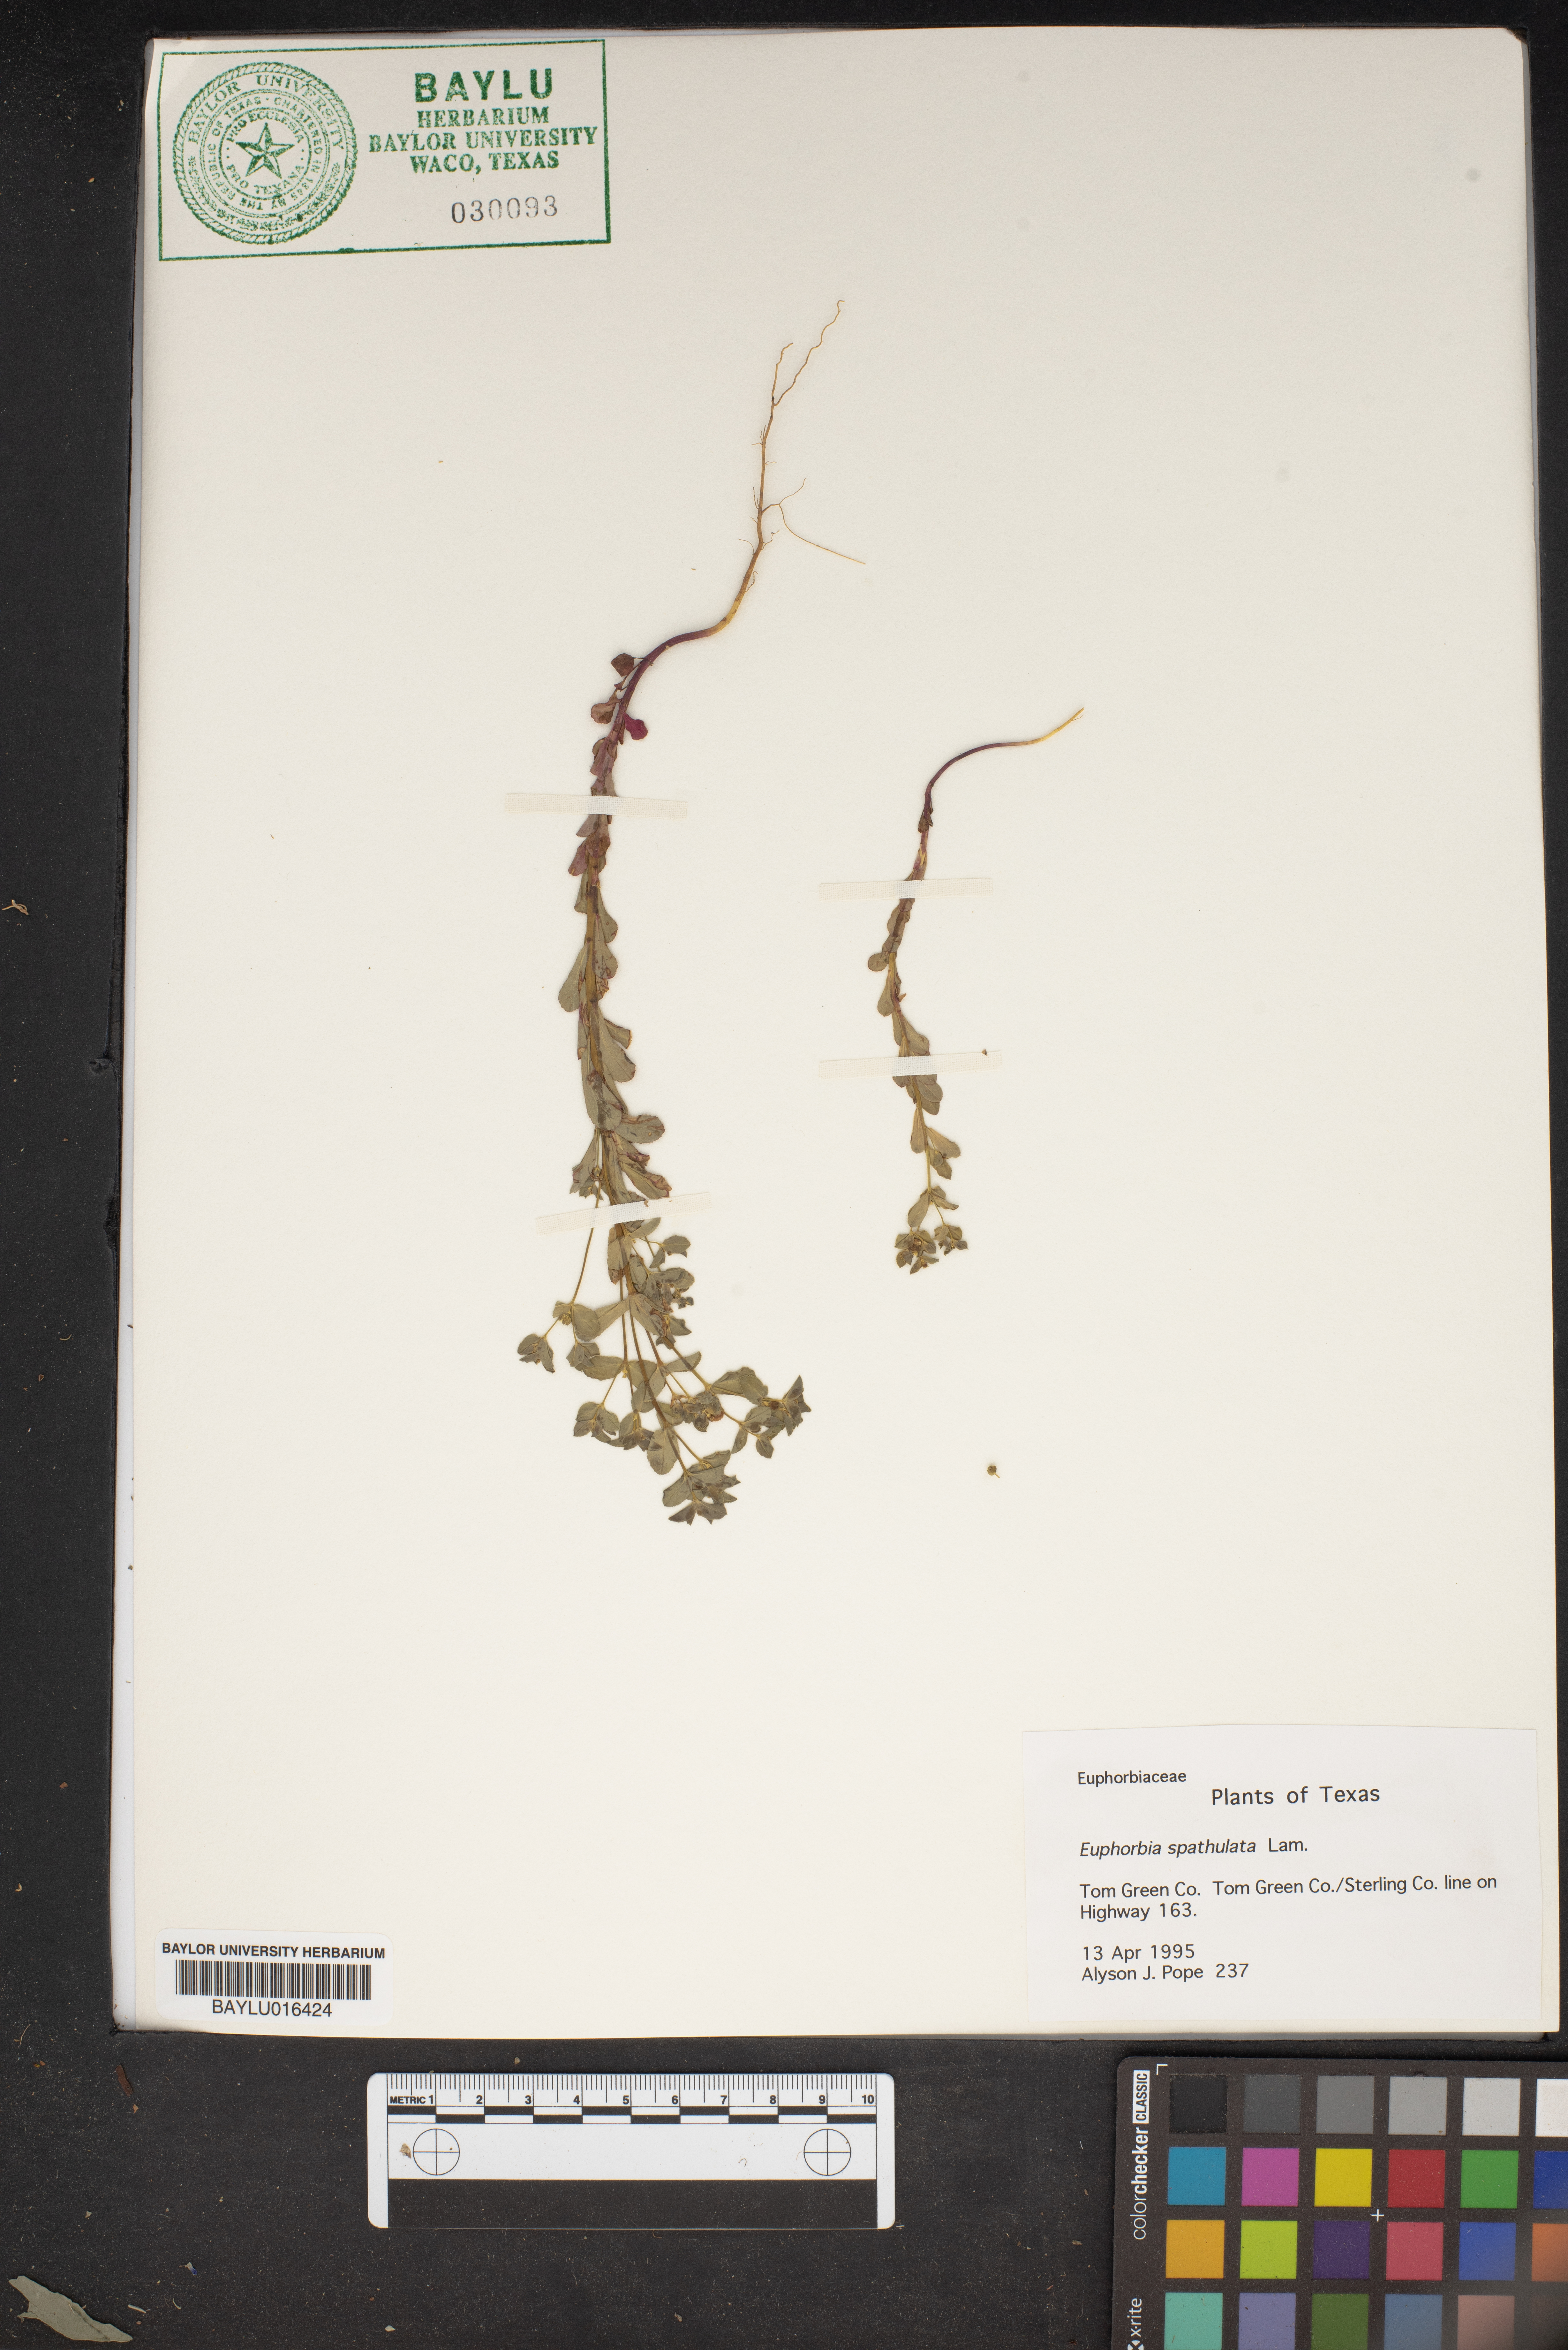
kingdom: Plantae
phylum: Tracheophyta
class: Magnoliopsida
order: Malpighiales
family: Euphorbiaceae
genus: Euphorbia
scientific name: Euphorbia spathulata
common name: Blunt spurge
